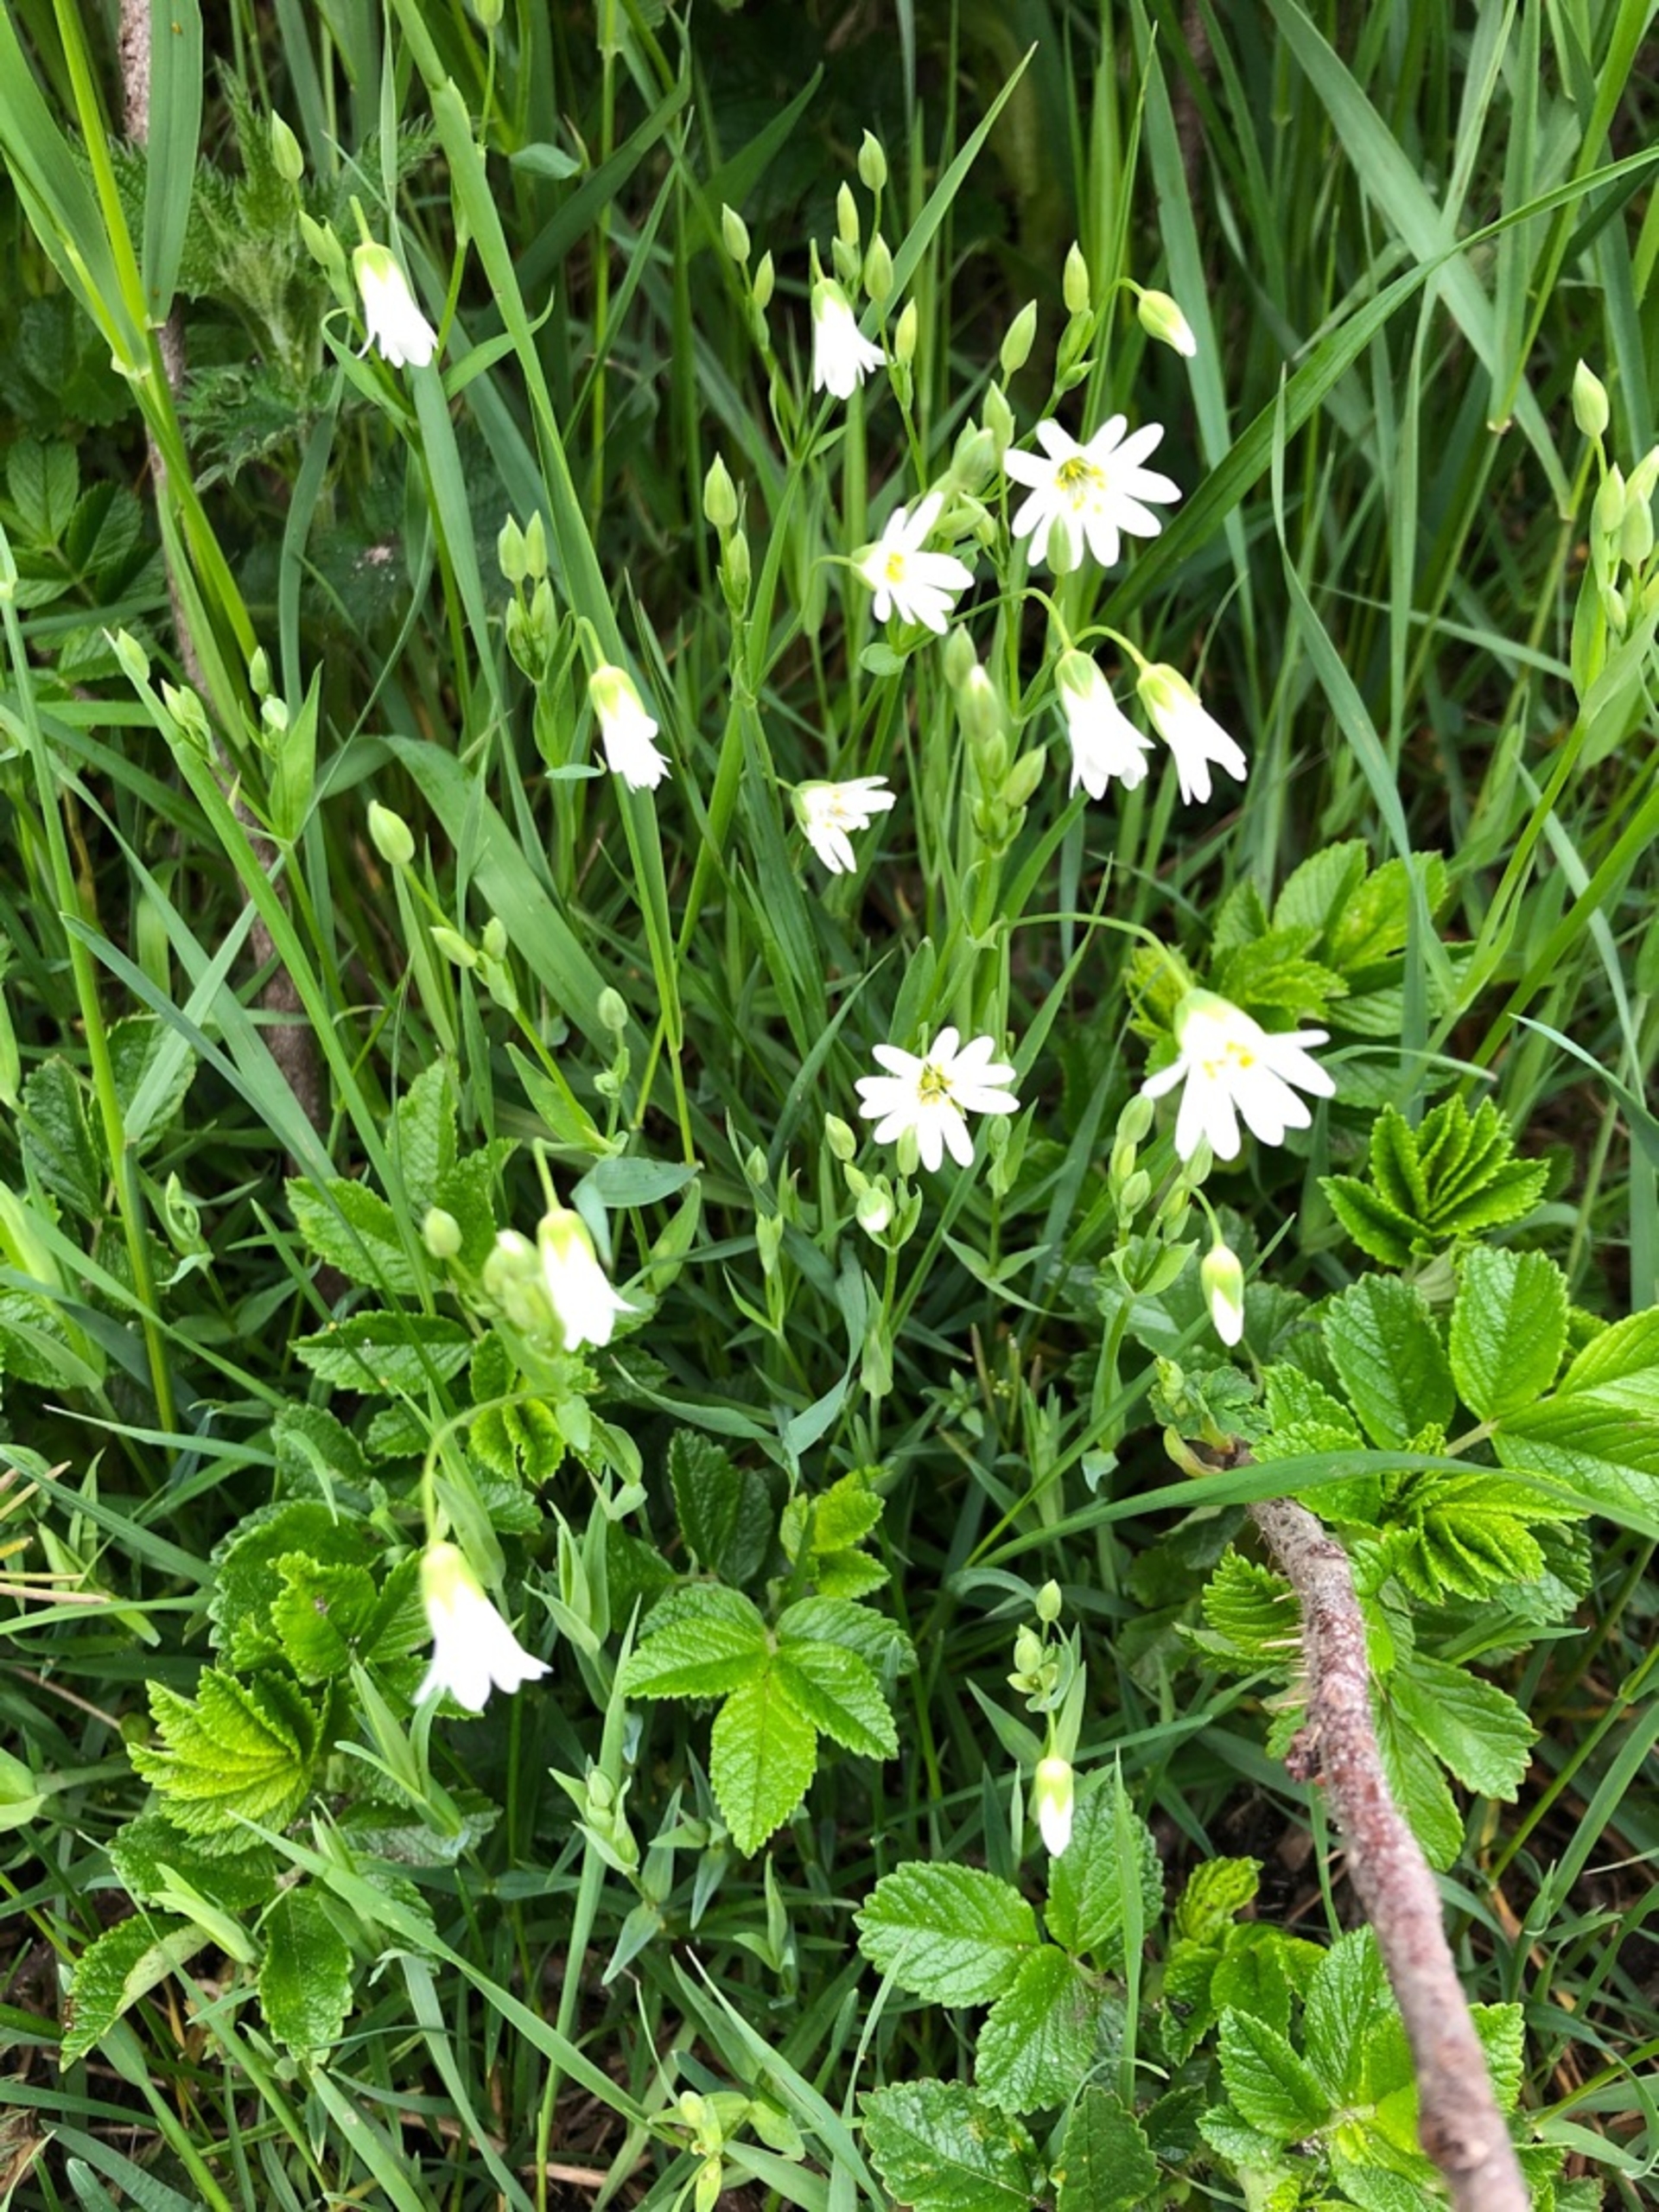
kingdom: Plantae
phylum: Tracheophyta
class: Magnoliopsida
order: Caryophyllales
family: Caryophyllaceae
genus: Rabelera
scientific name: Rabelera holostea
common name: Stor fladstjerne
